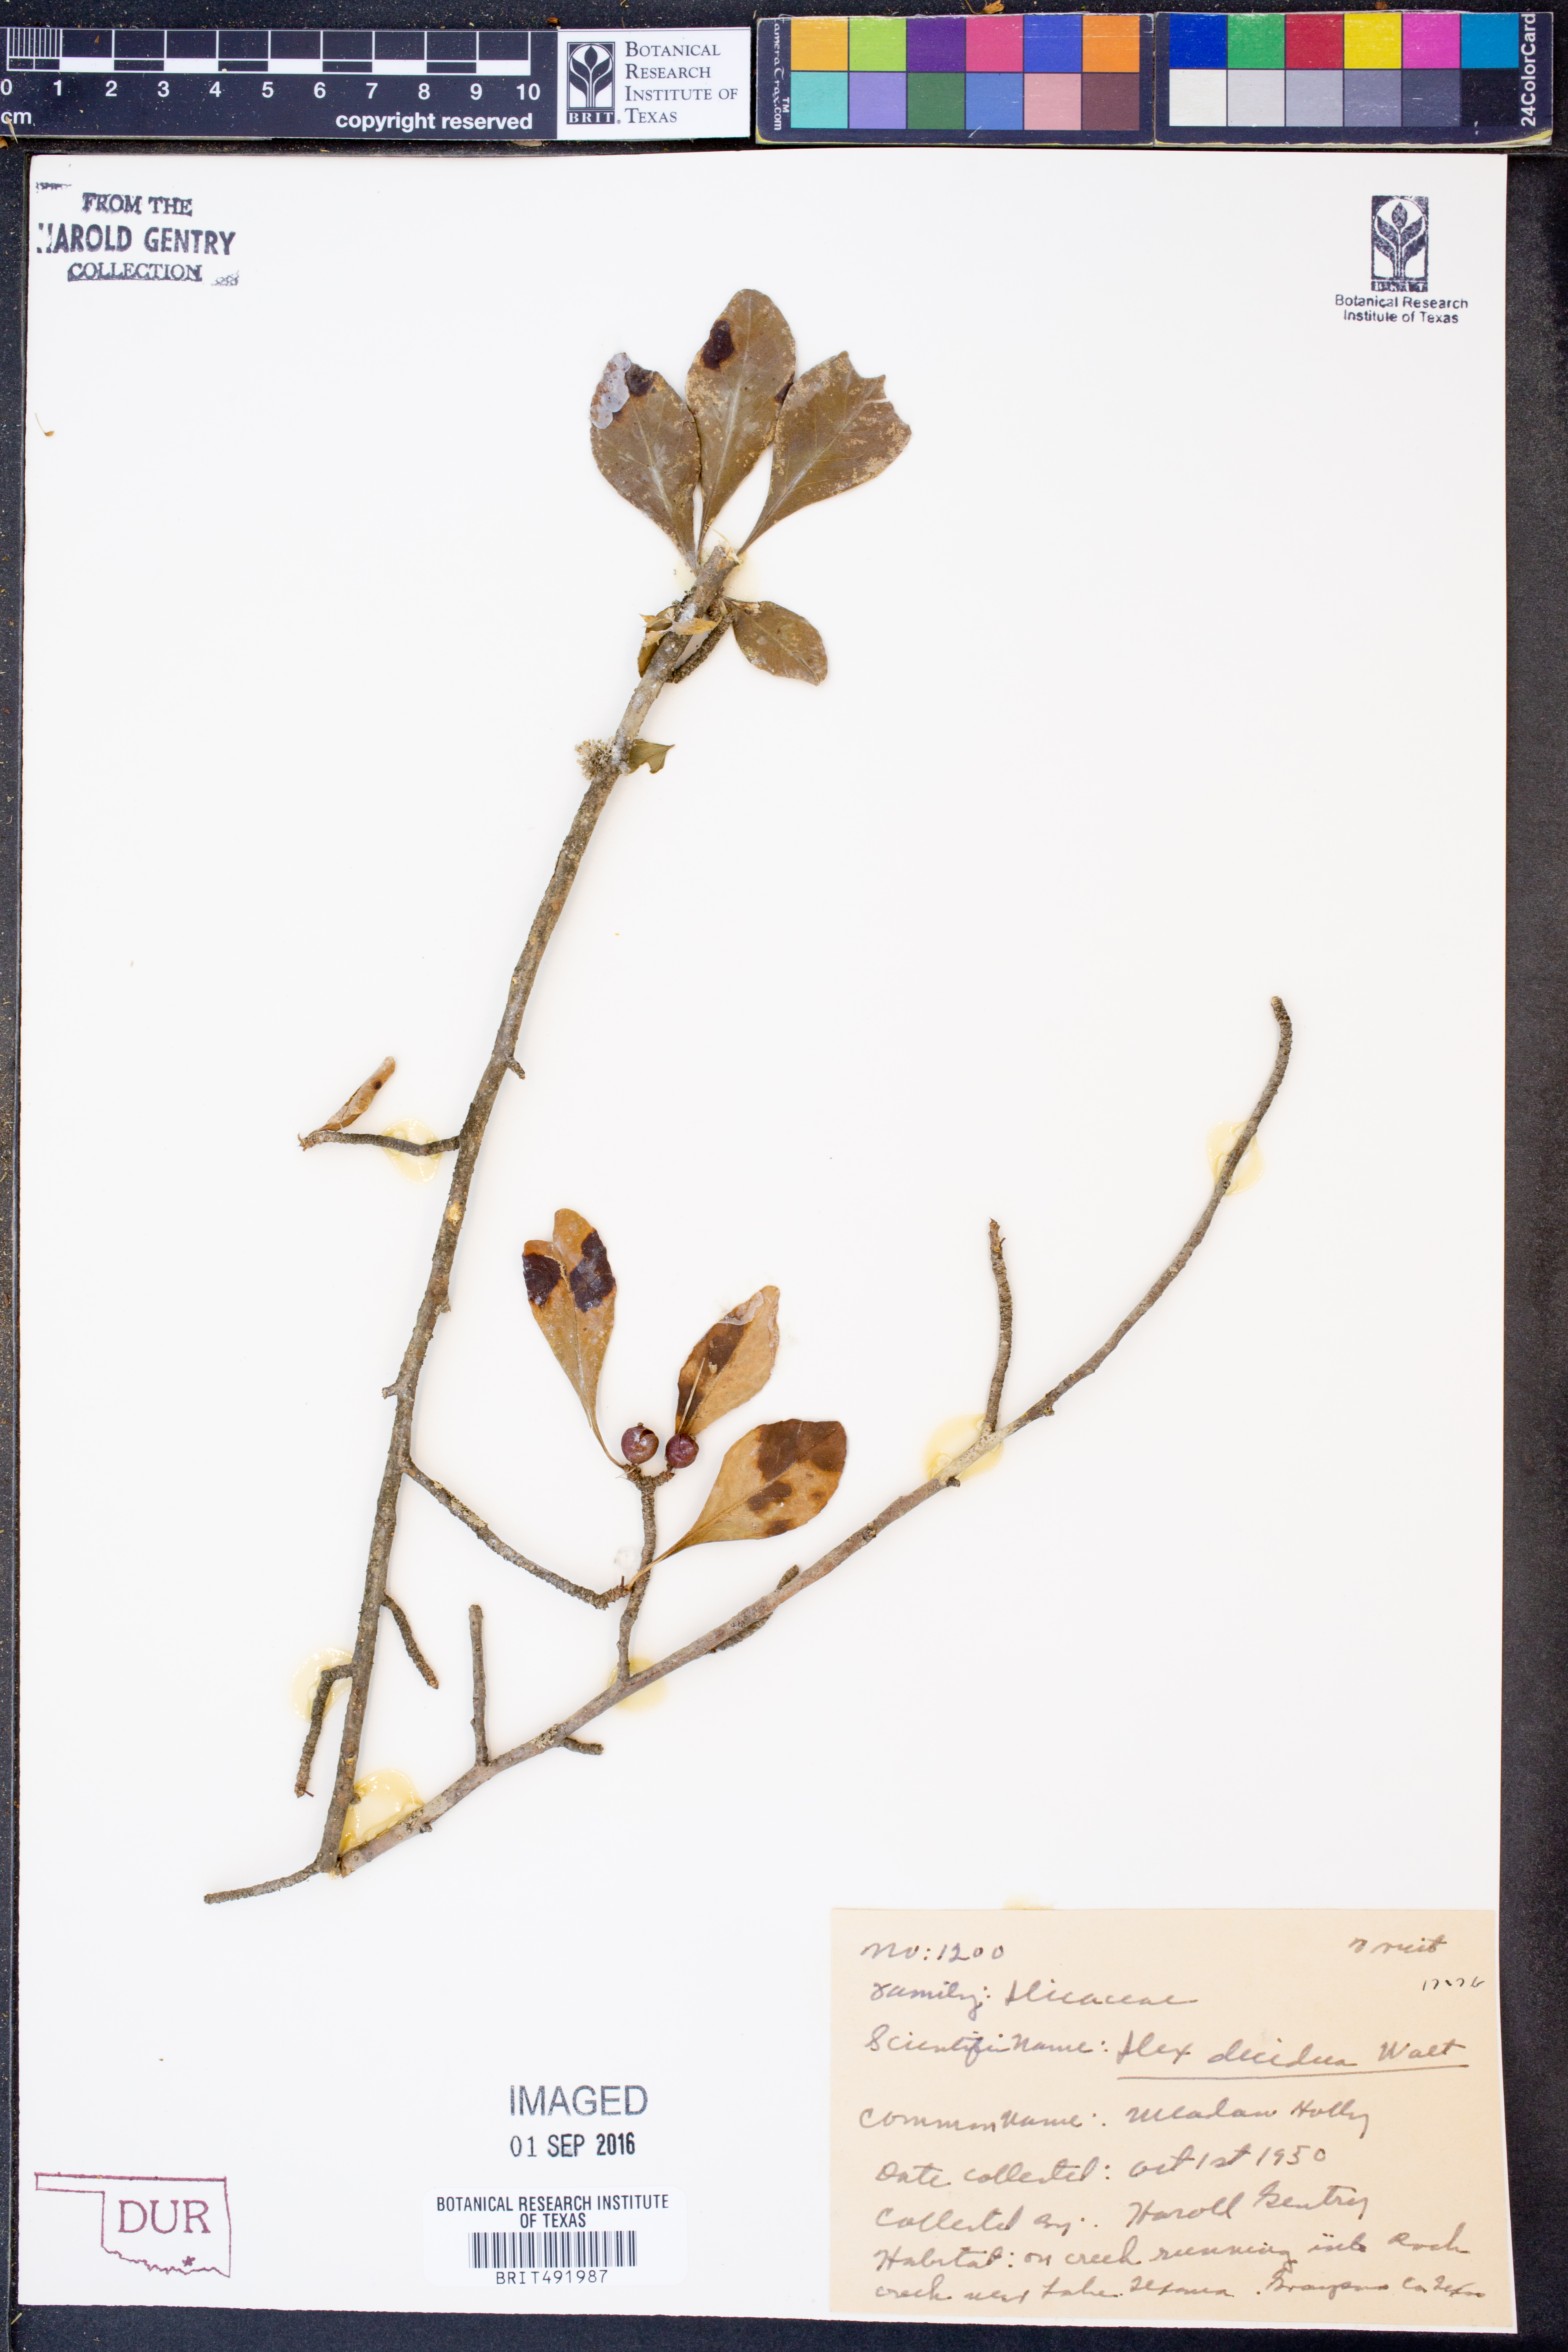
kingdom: Plantae
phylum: Tracheophyta
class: Magnoliopsida
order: Aquifoliales
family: Aquifoliaceae
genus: Ilex
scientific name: Ilex decidua
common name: Possum-haw
